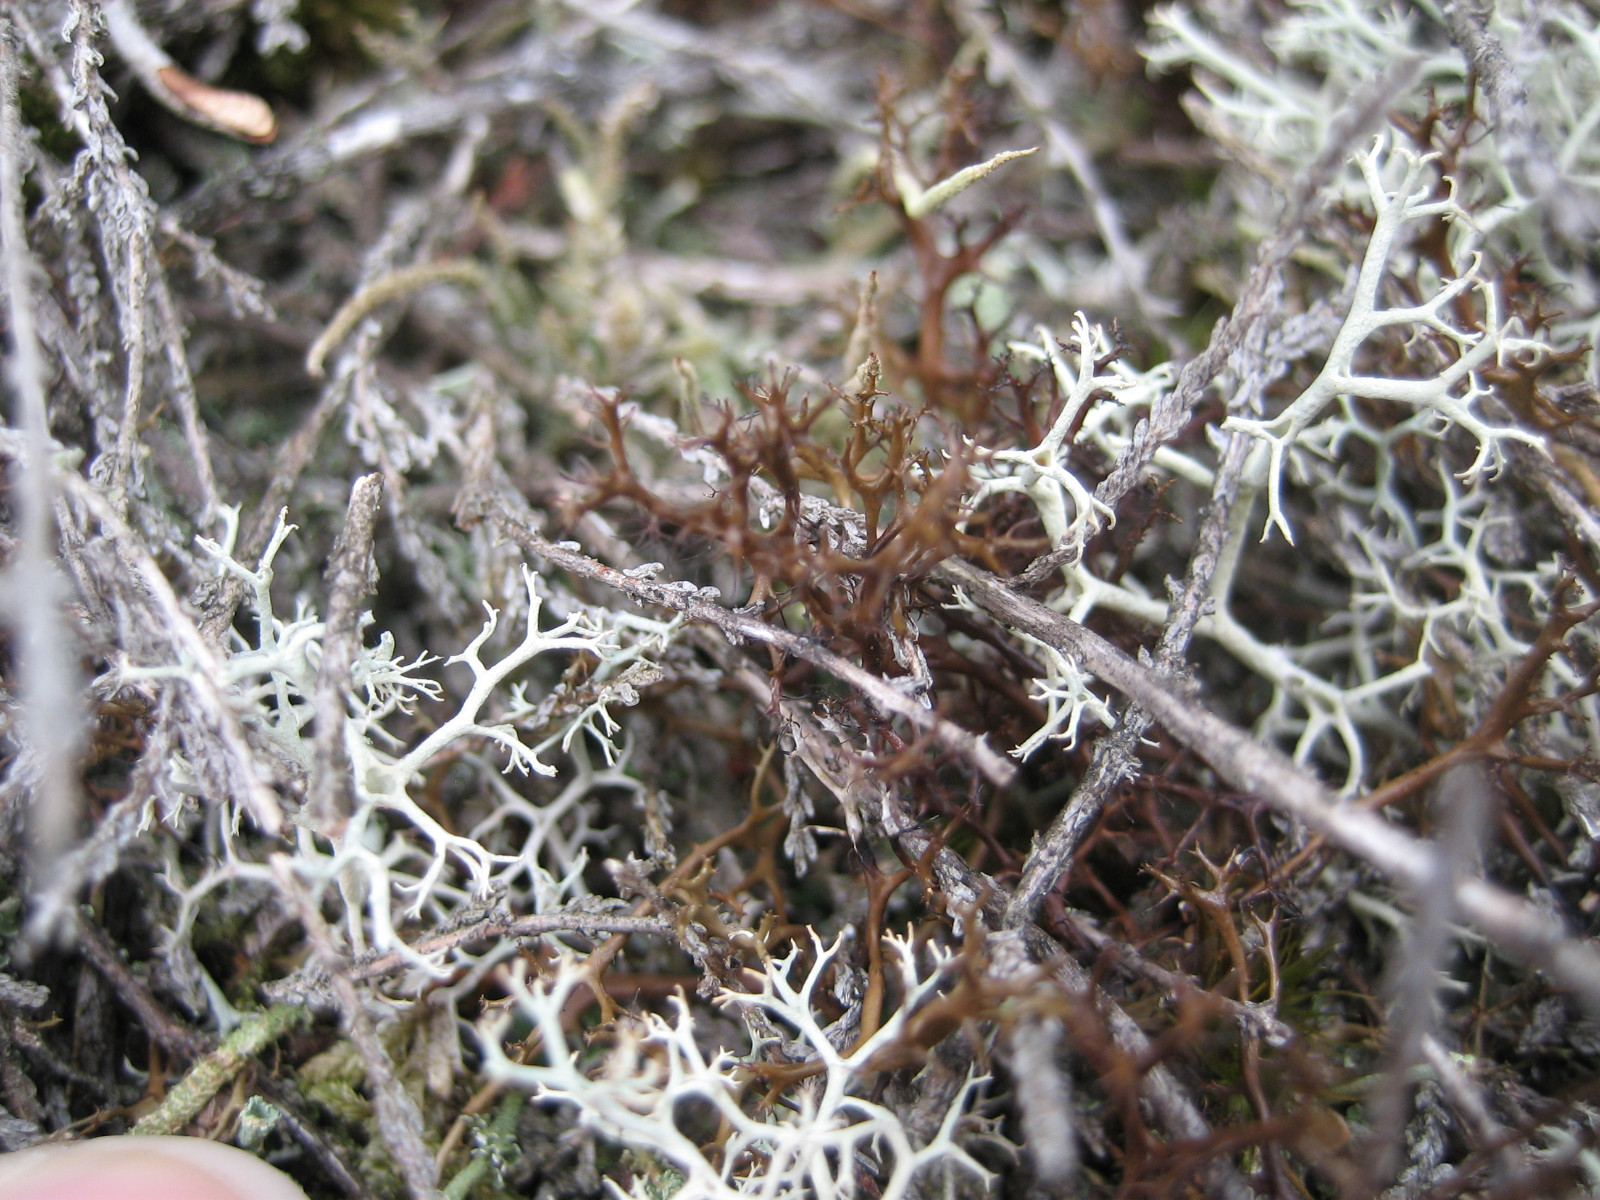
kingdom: Fungi
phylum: Ascomycota
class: Lecanoromycetes
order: Lecanorales
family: Parmeliaceae
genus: Cetraria
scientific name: Cetraria aculeata
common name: grubet tjørnelav
